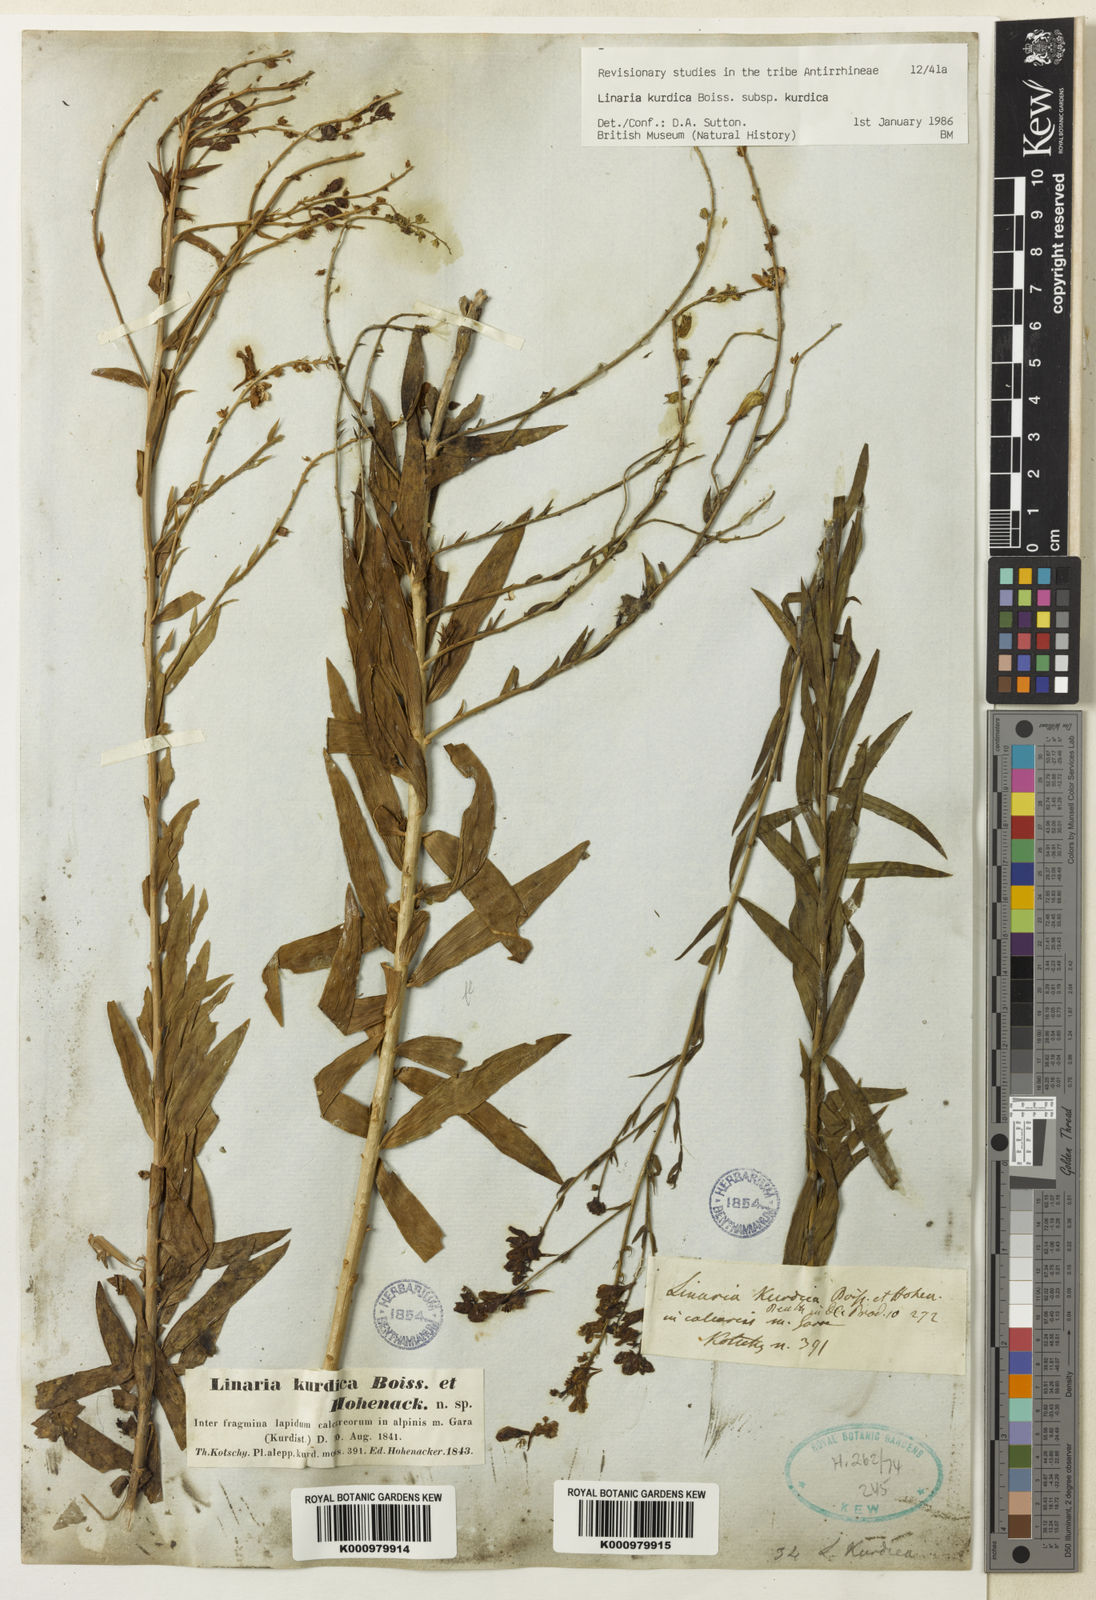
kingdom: Plantae
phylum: Tracheophyta
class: Magnoliopsida
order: Lamiales
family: Plantaginaceae
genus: Linaria
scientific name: Linaria kurdica
